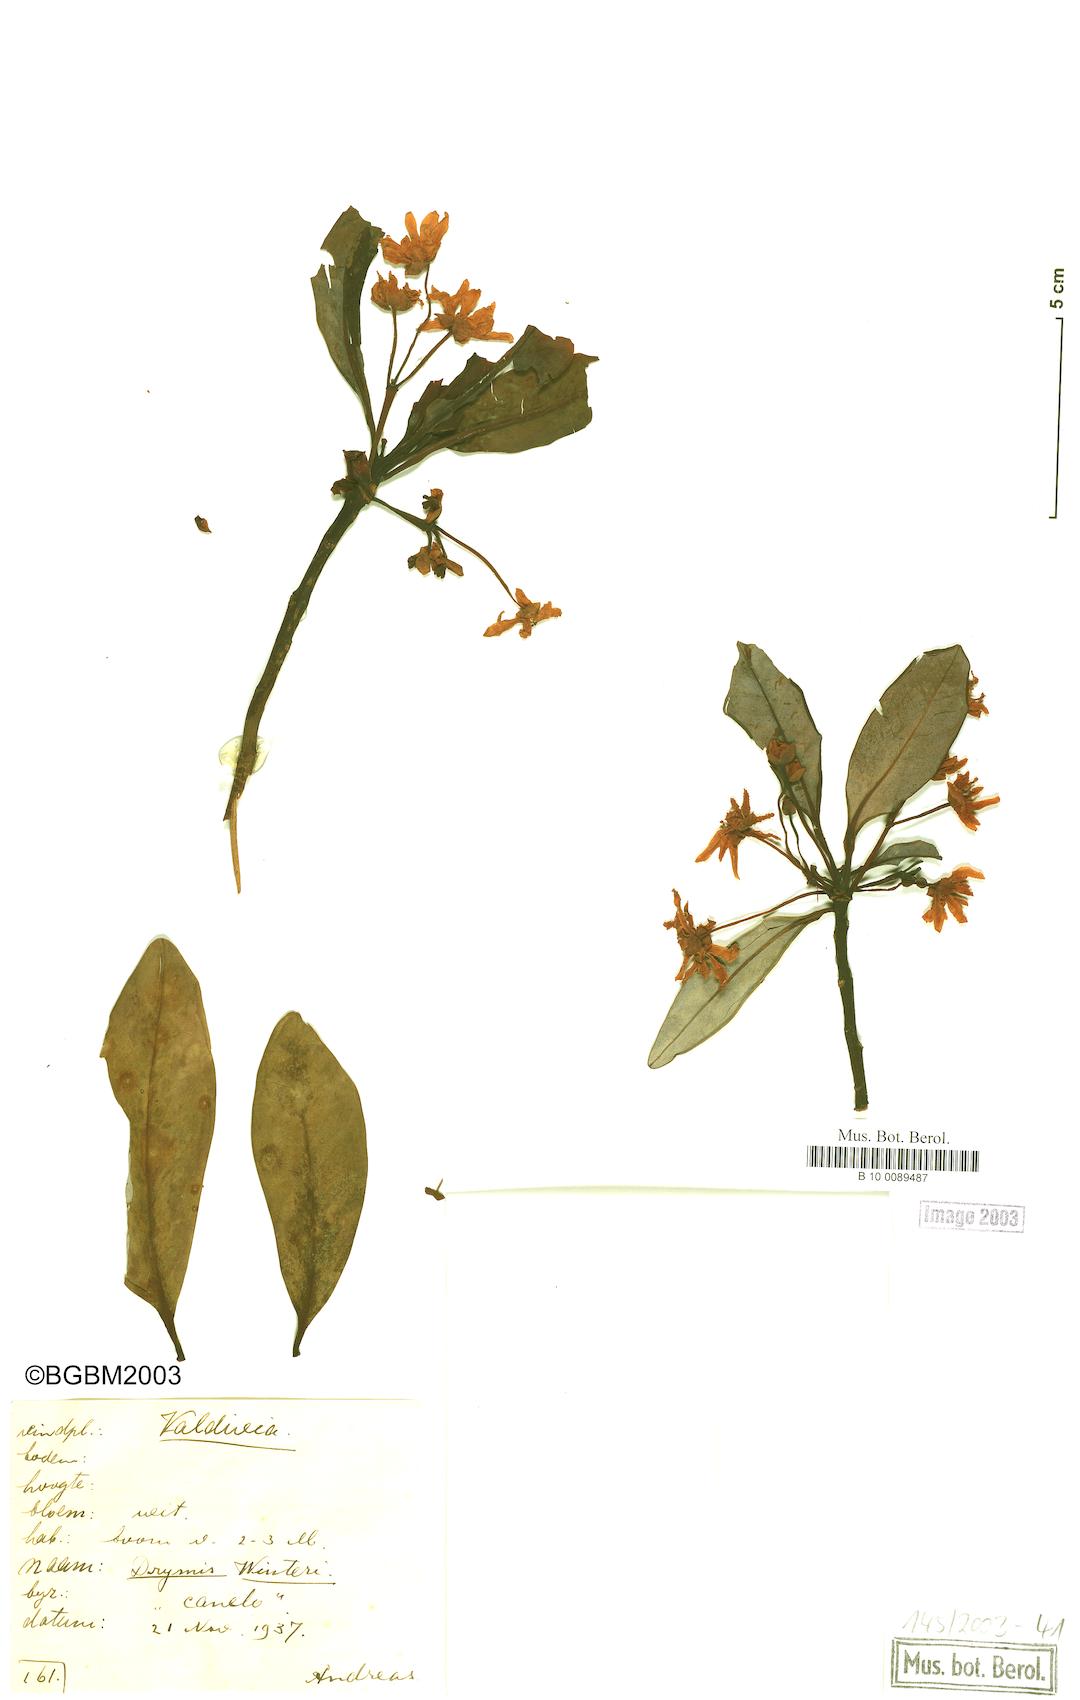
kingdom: Plantae
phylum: Tracheophyta
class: Magnoliopsida
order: Canellales
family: Winteraceae
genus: Drimys
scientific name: Drimys winteri
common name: Winter's-bark
